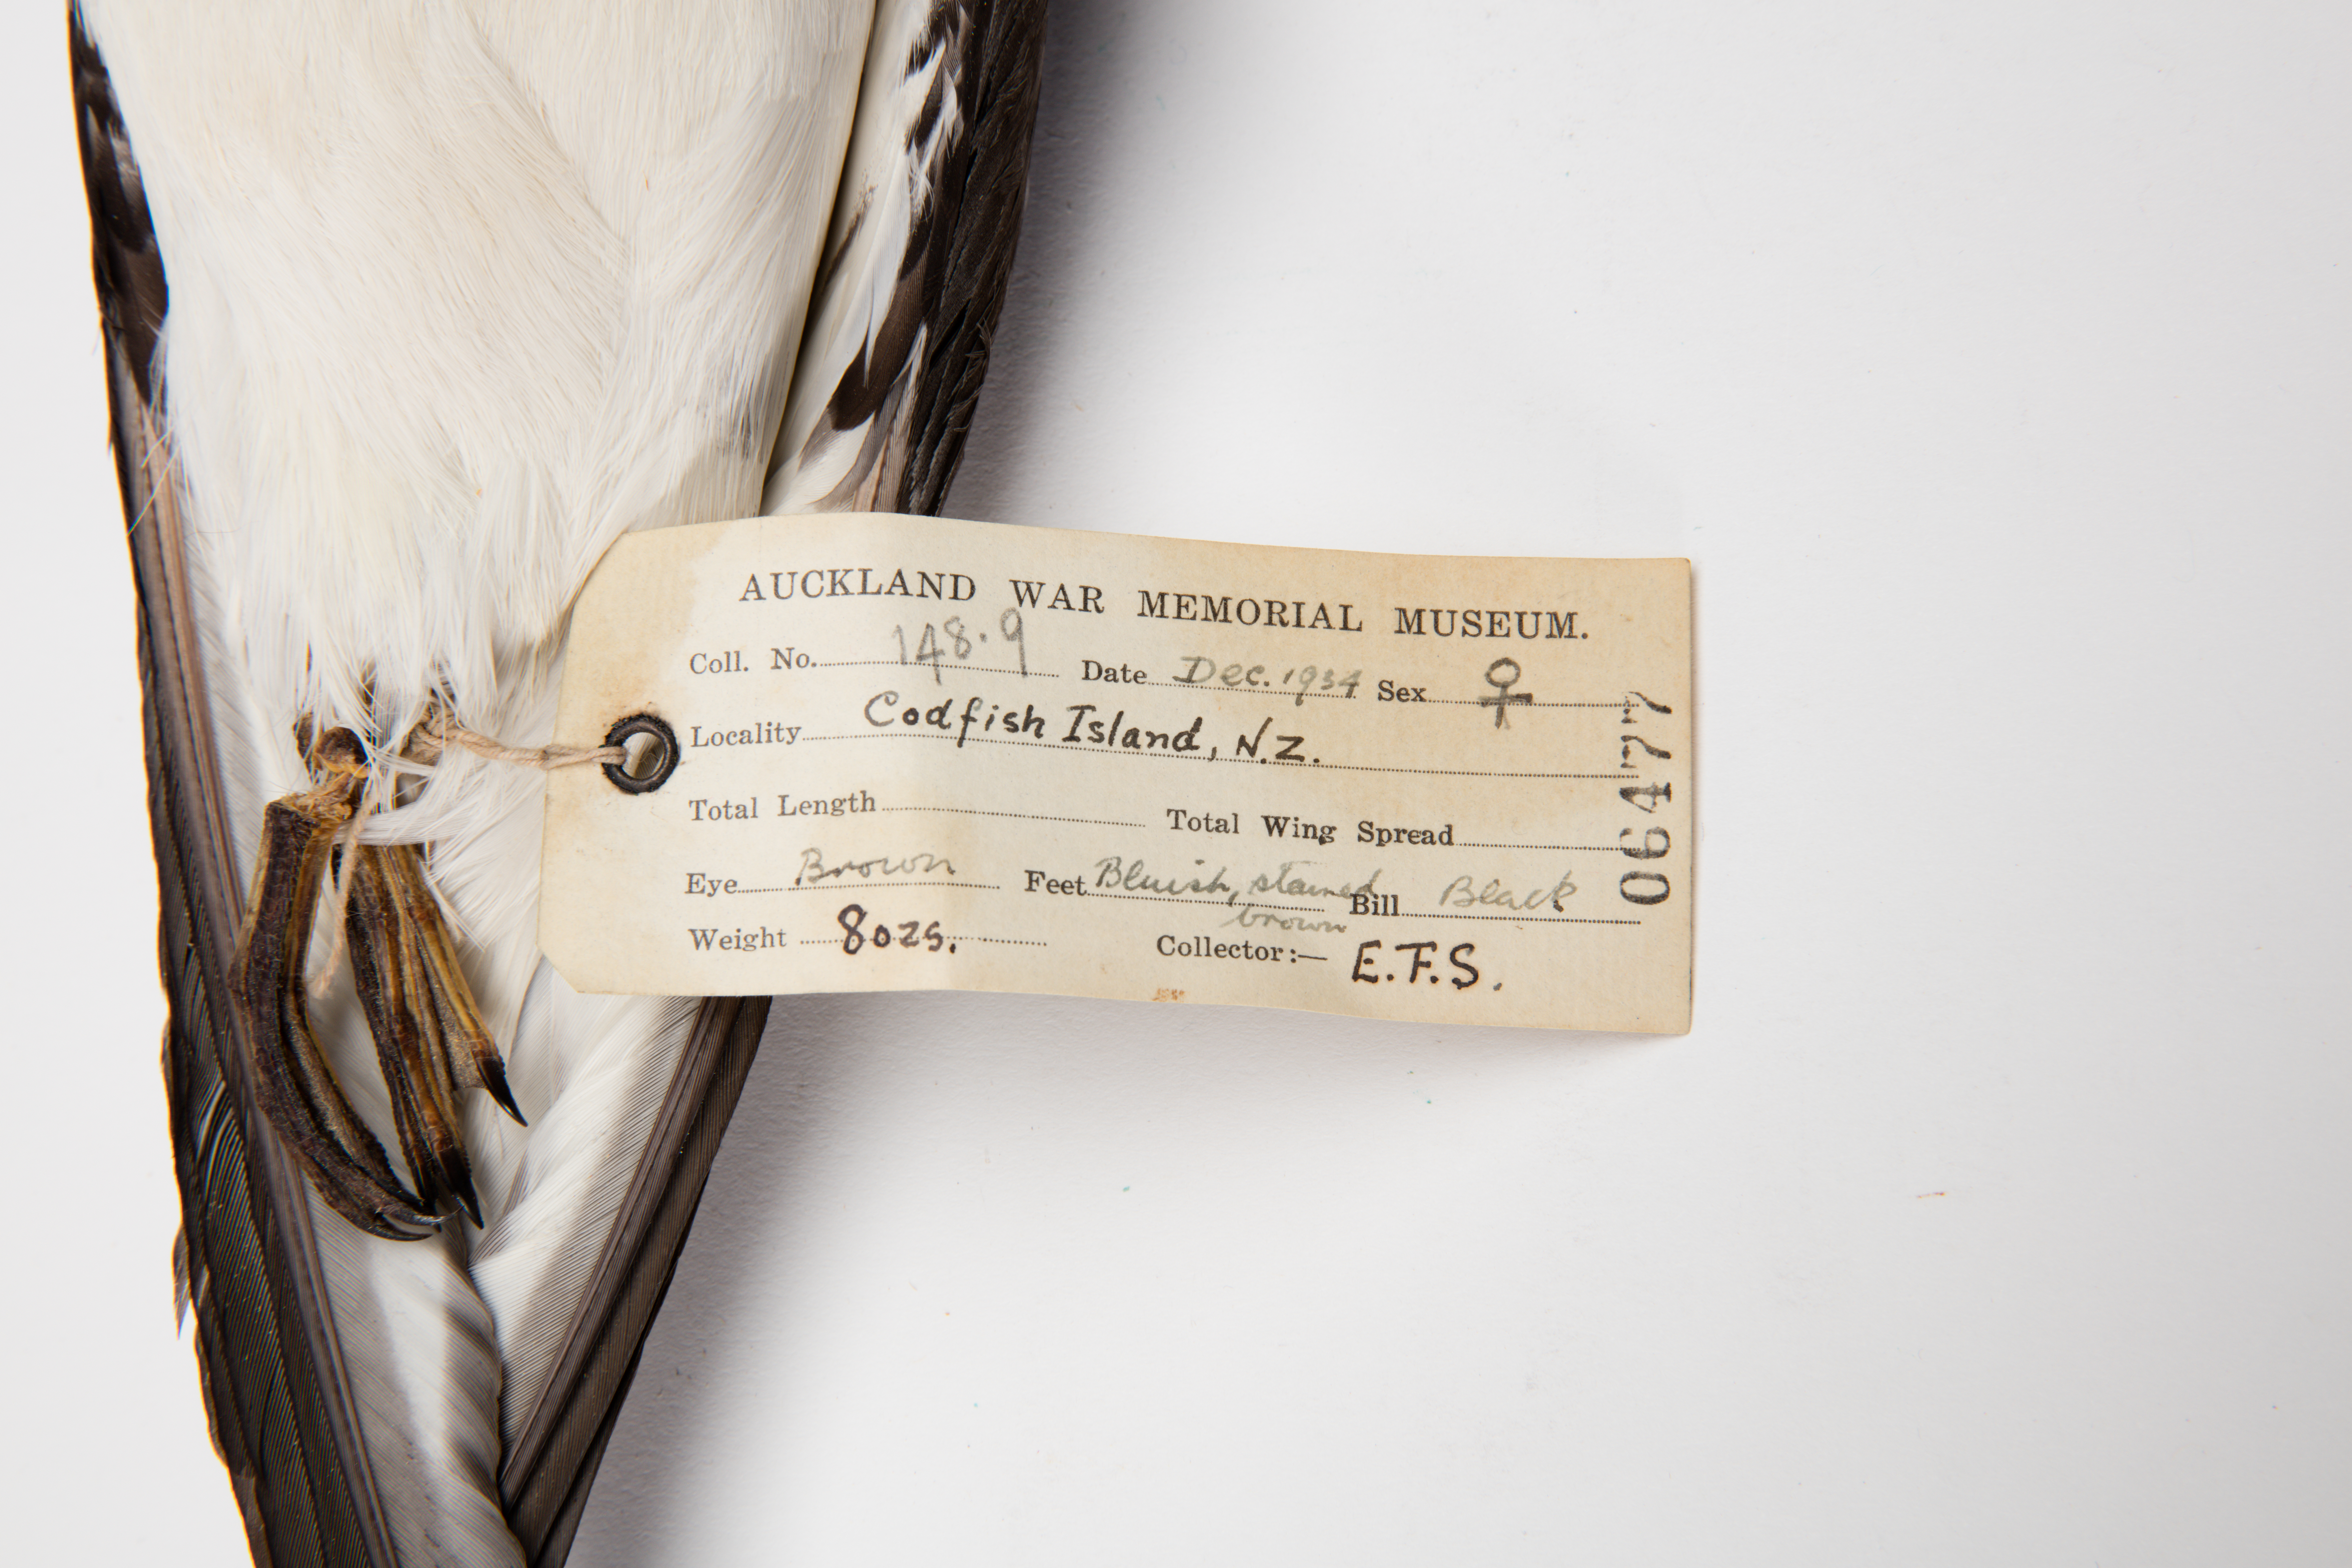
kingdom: Animalia
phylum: Chordata
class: Aves
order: Procellariiformes
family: Procellariidae
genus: Pterodroma
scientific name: Pterodroma cookii
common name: Cook's petrel
